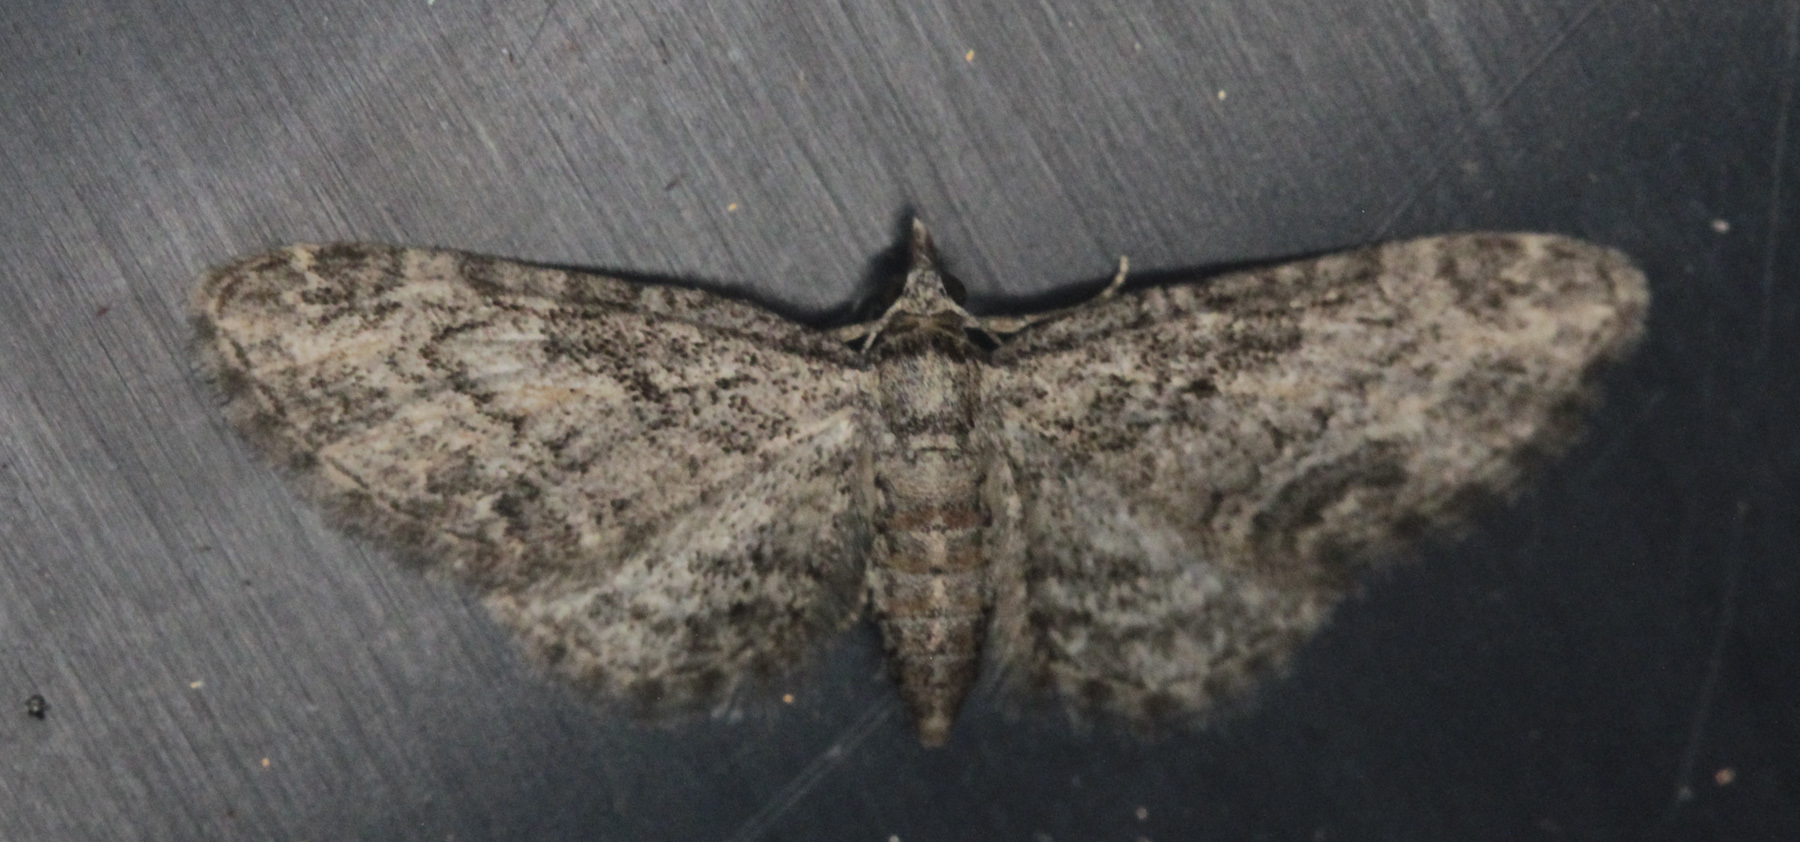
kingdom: Animalia
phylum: Arthropoda
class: Insecta
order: Lepidoptera
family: Geometridae
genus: Eupithecia
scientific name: Eupithecia inturbata
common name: Maple pug
